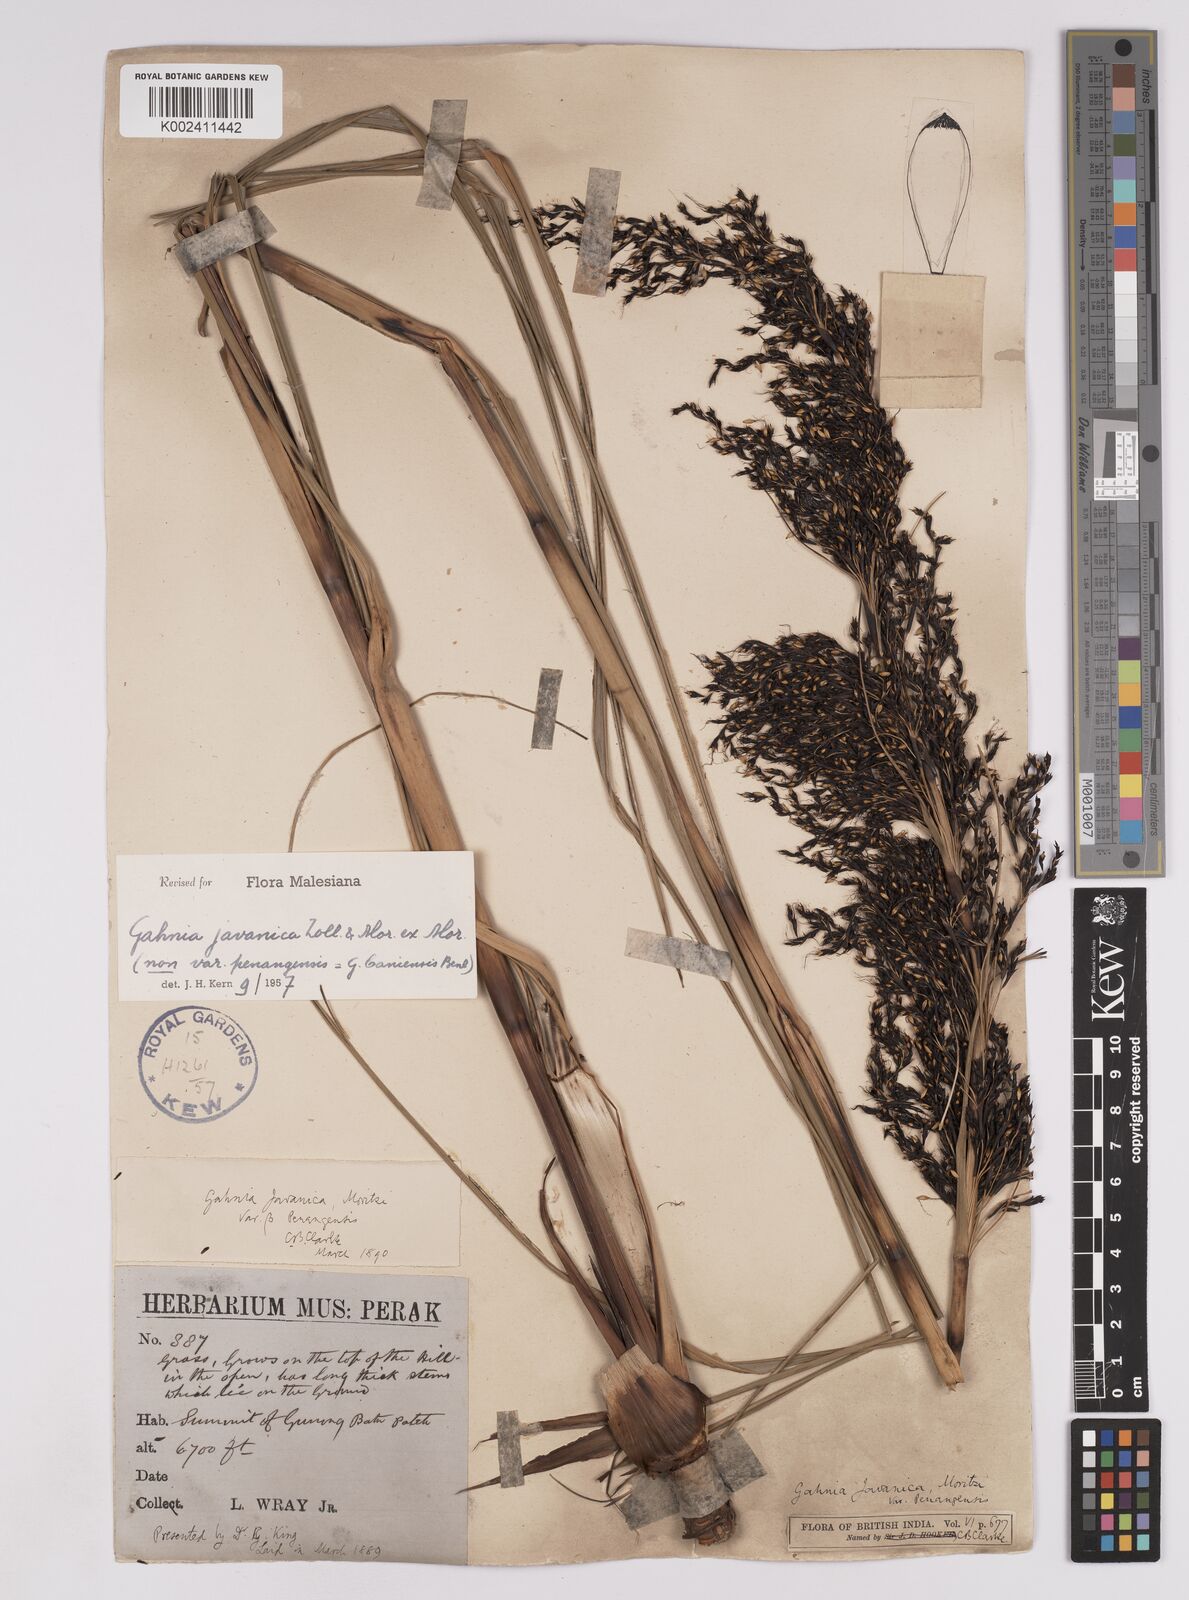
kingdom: Plantae
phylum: Tracheophyta
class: Liliopsida
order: Poales
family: Cyperaceae
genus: Gahnia
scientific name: Gahnia javanica
